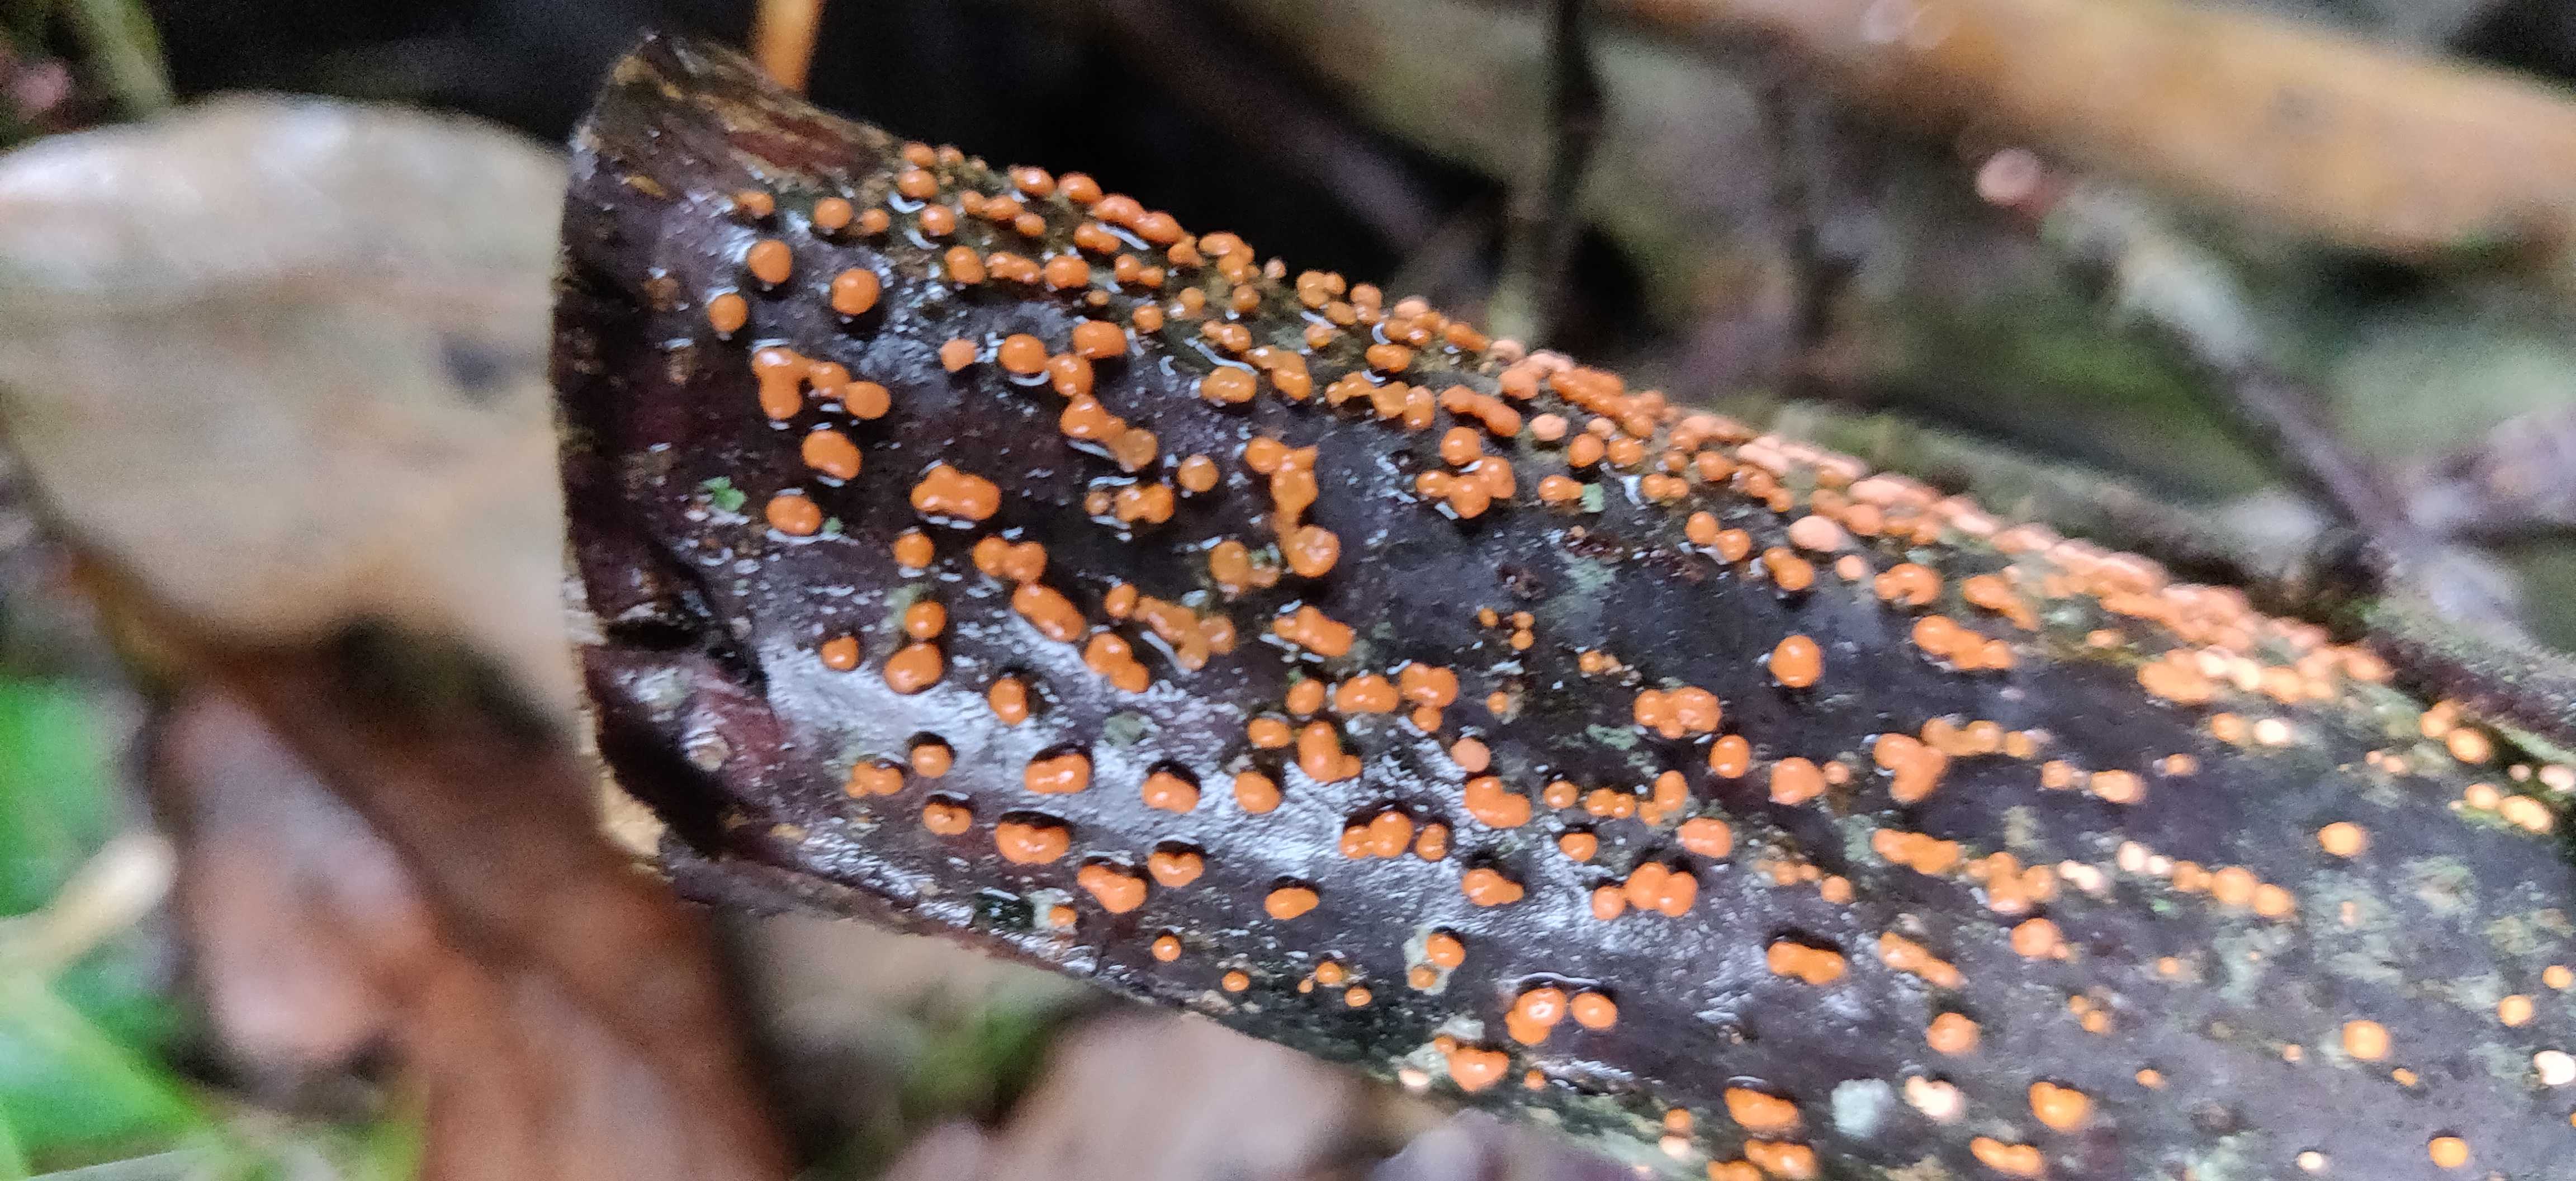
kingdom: Fungi
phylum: Ascomycota
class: Sordariomycetes
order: Hypocreales
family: Nectriaceae
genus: Nectria
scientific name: Nectria cinnabarina
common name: almindelig cinnobersvamp
